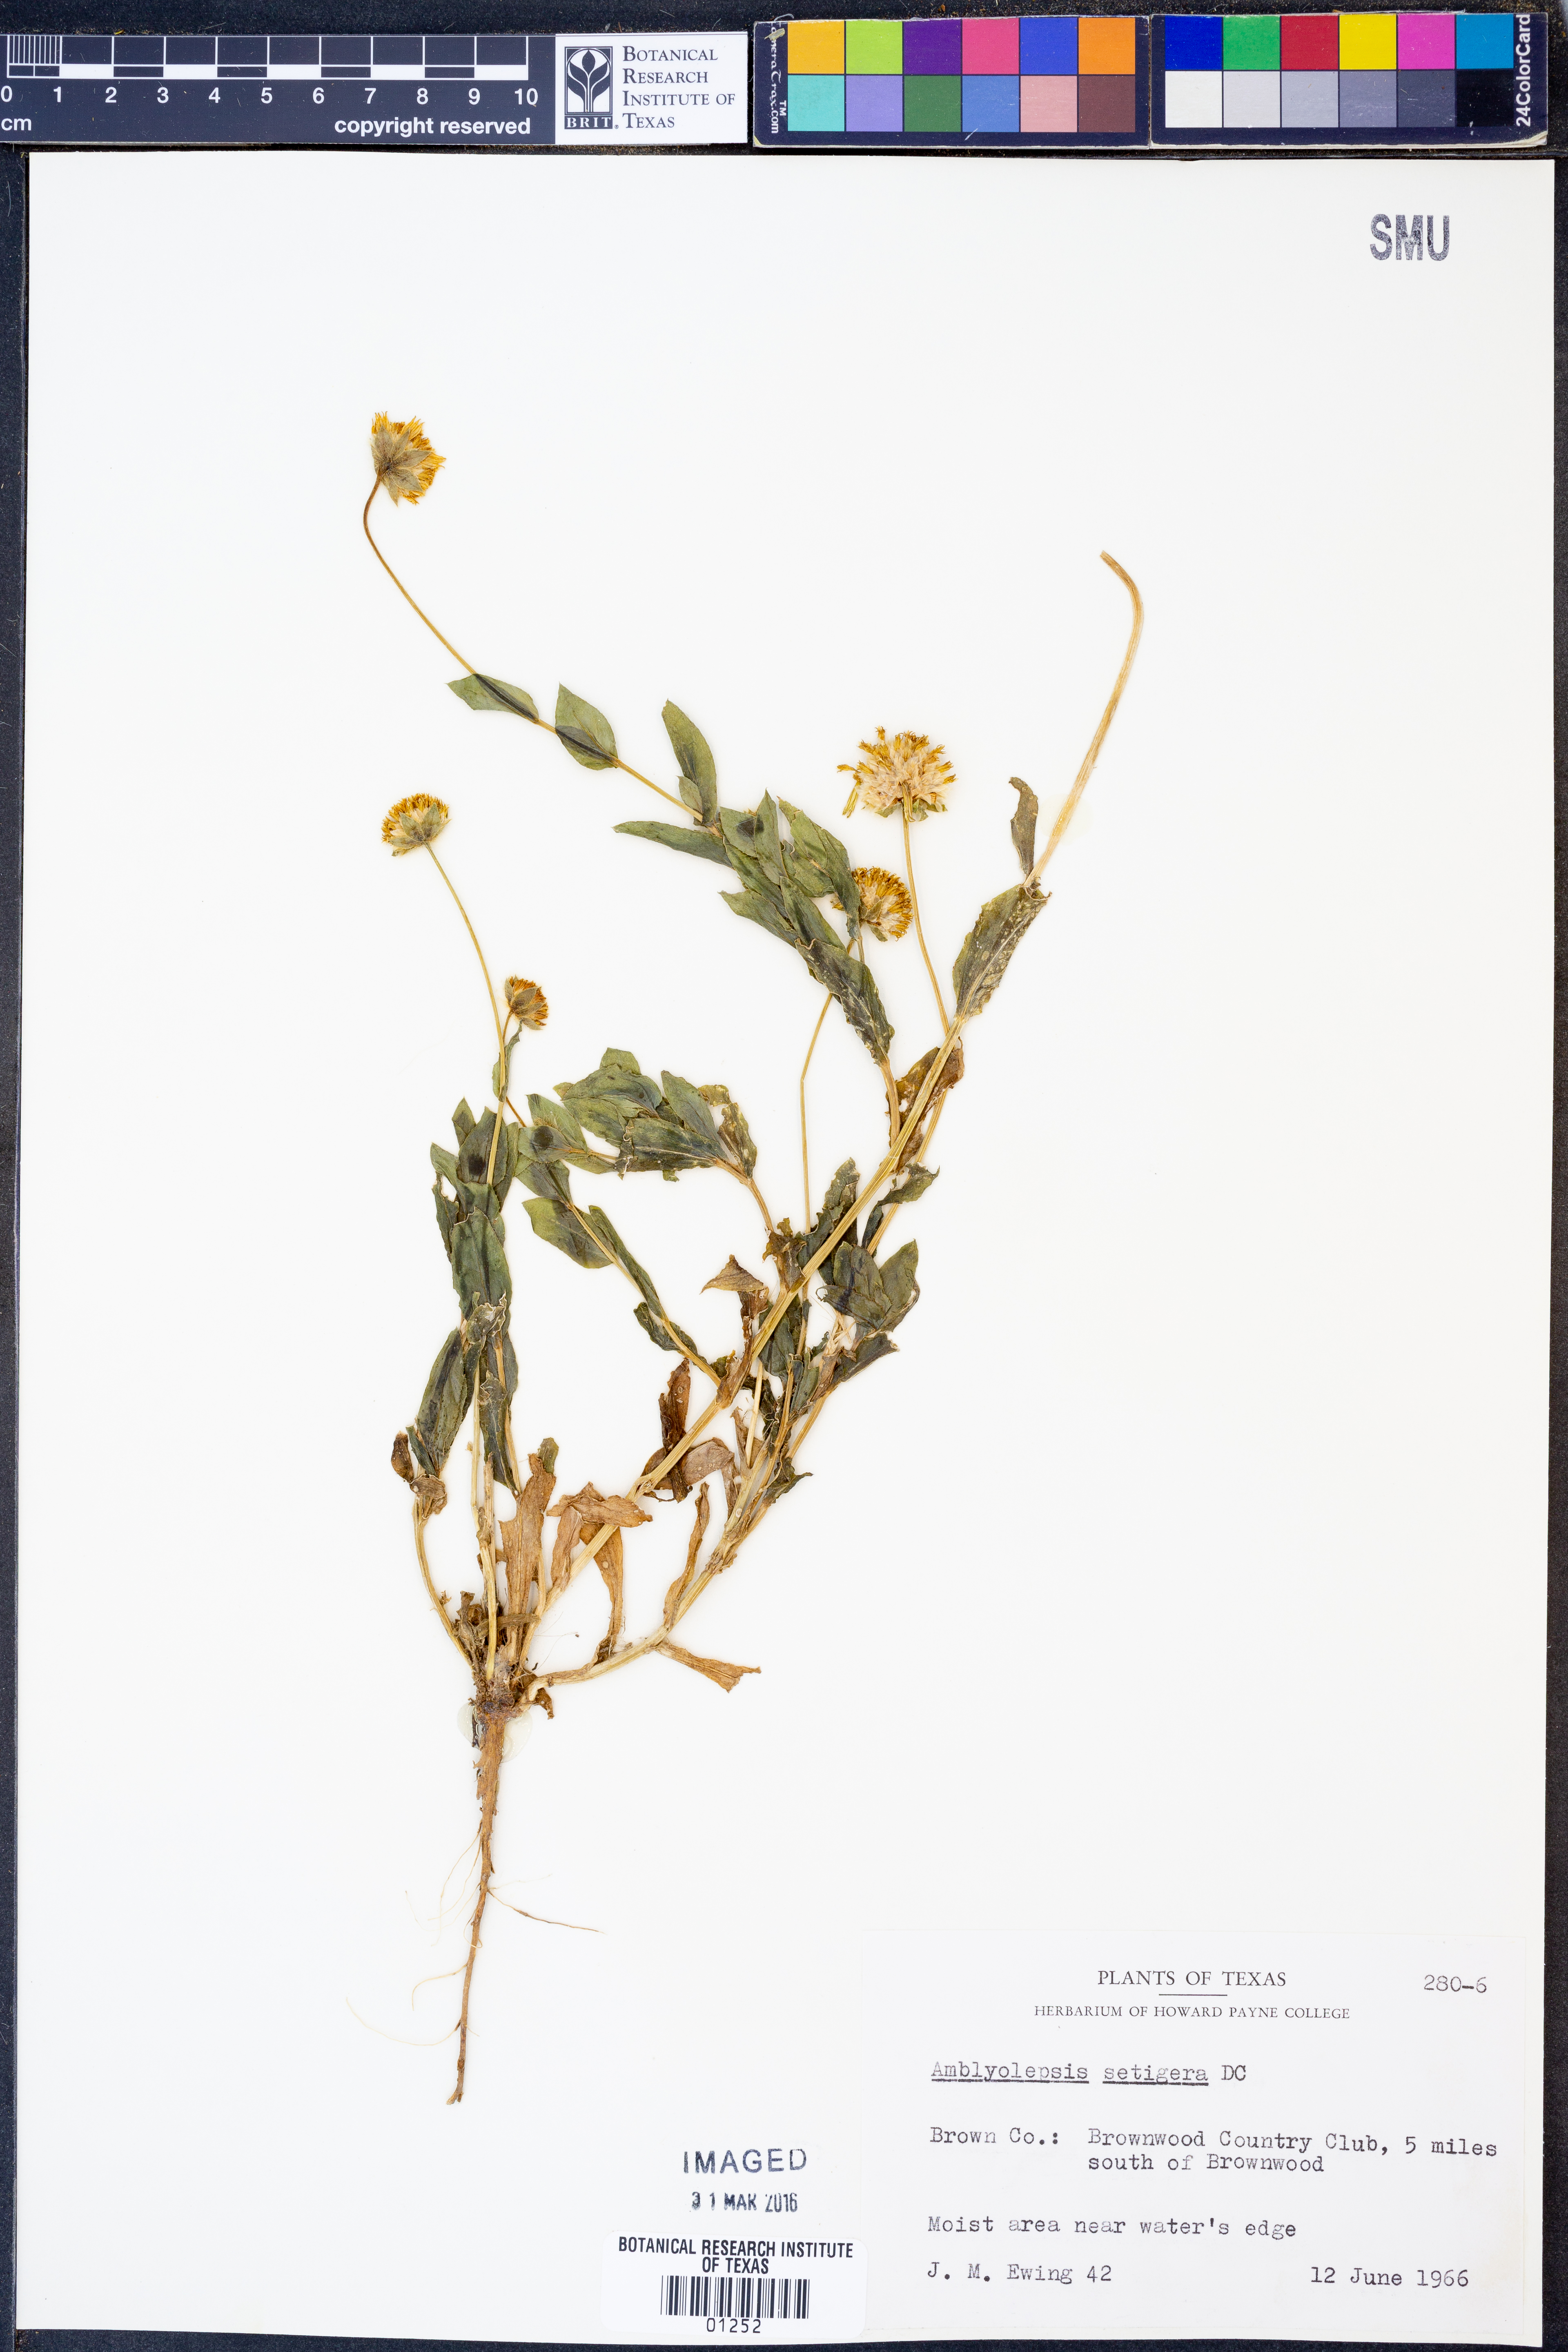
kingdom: Plantae
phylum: Tracheophyta
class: Magnoliopsida
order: Asterales
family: Asteraceae
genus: Amblyolepis
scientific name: Amblyolepis setigera
